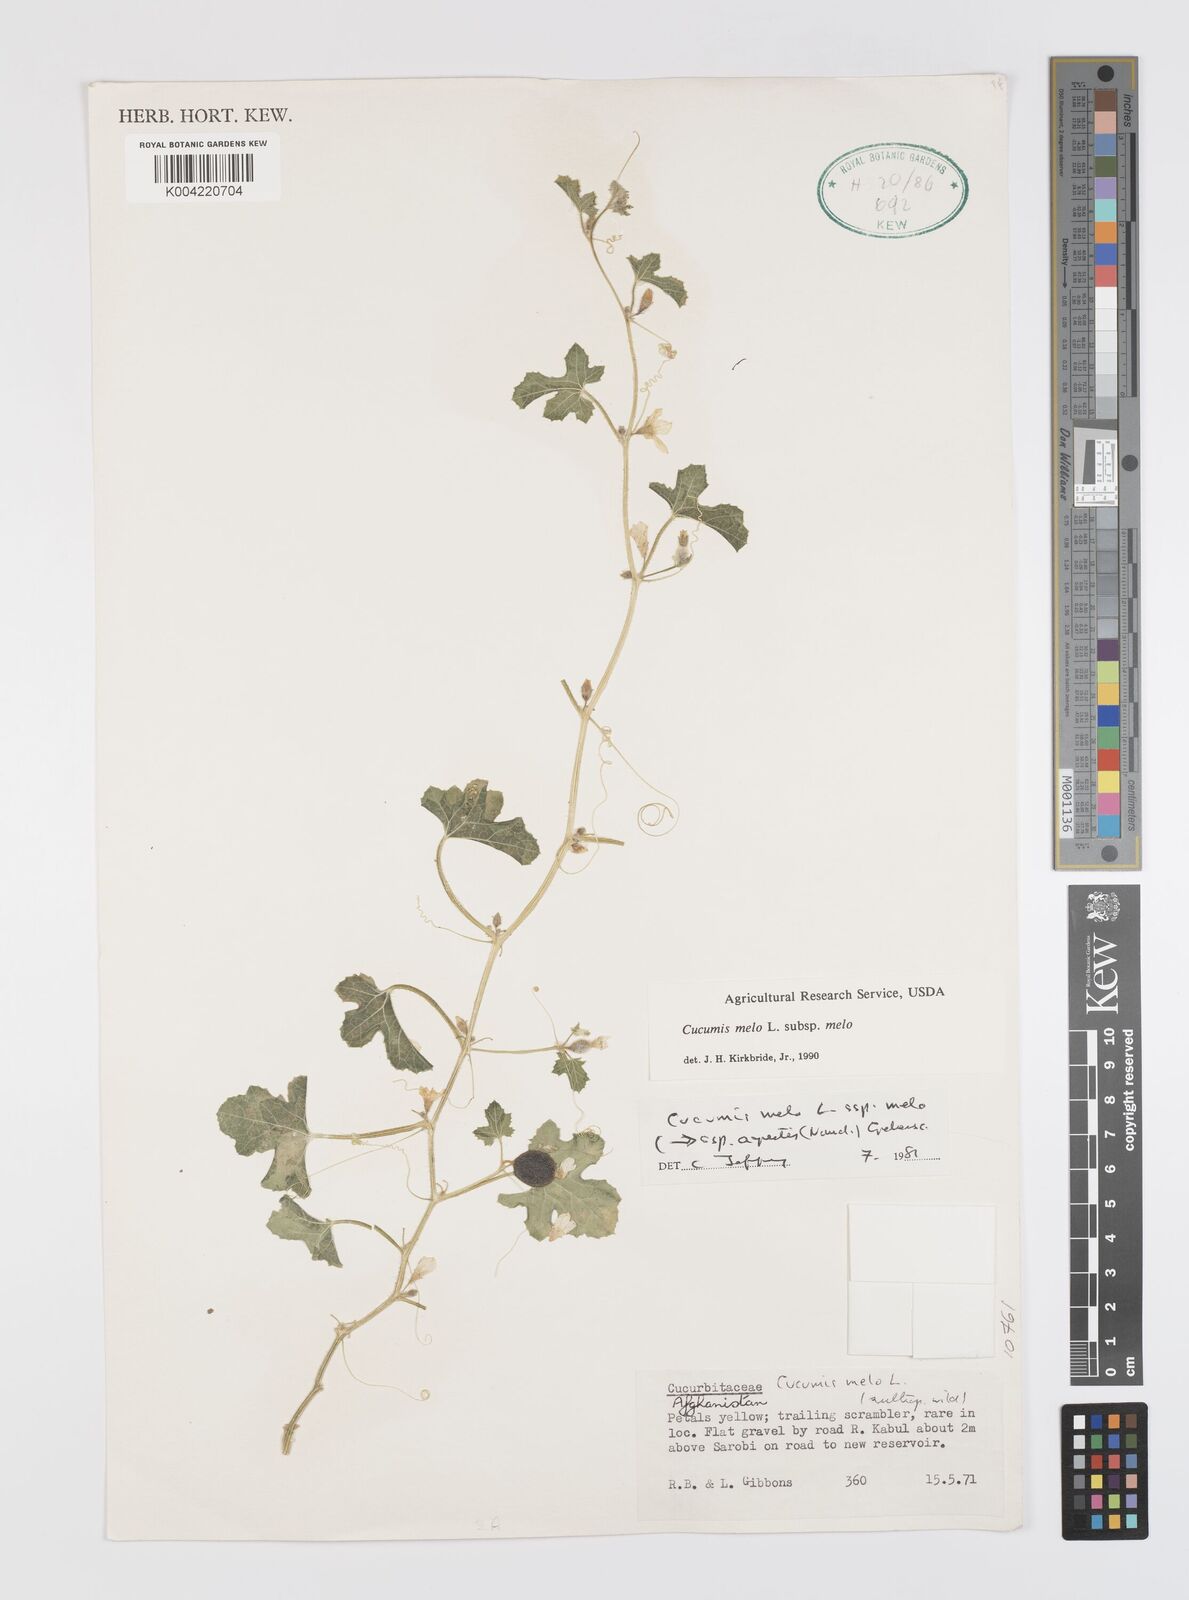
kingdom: Plantae
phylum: Tracheophyta
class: Magnoliopsida
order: Cucurbitales
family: Cucurbitaceae
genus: Cucumis
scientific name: Cucumis melo
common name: Melon
